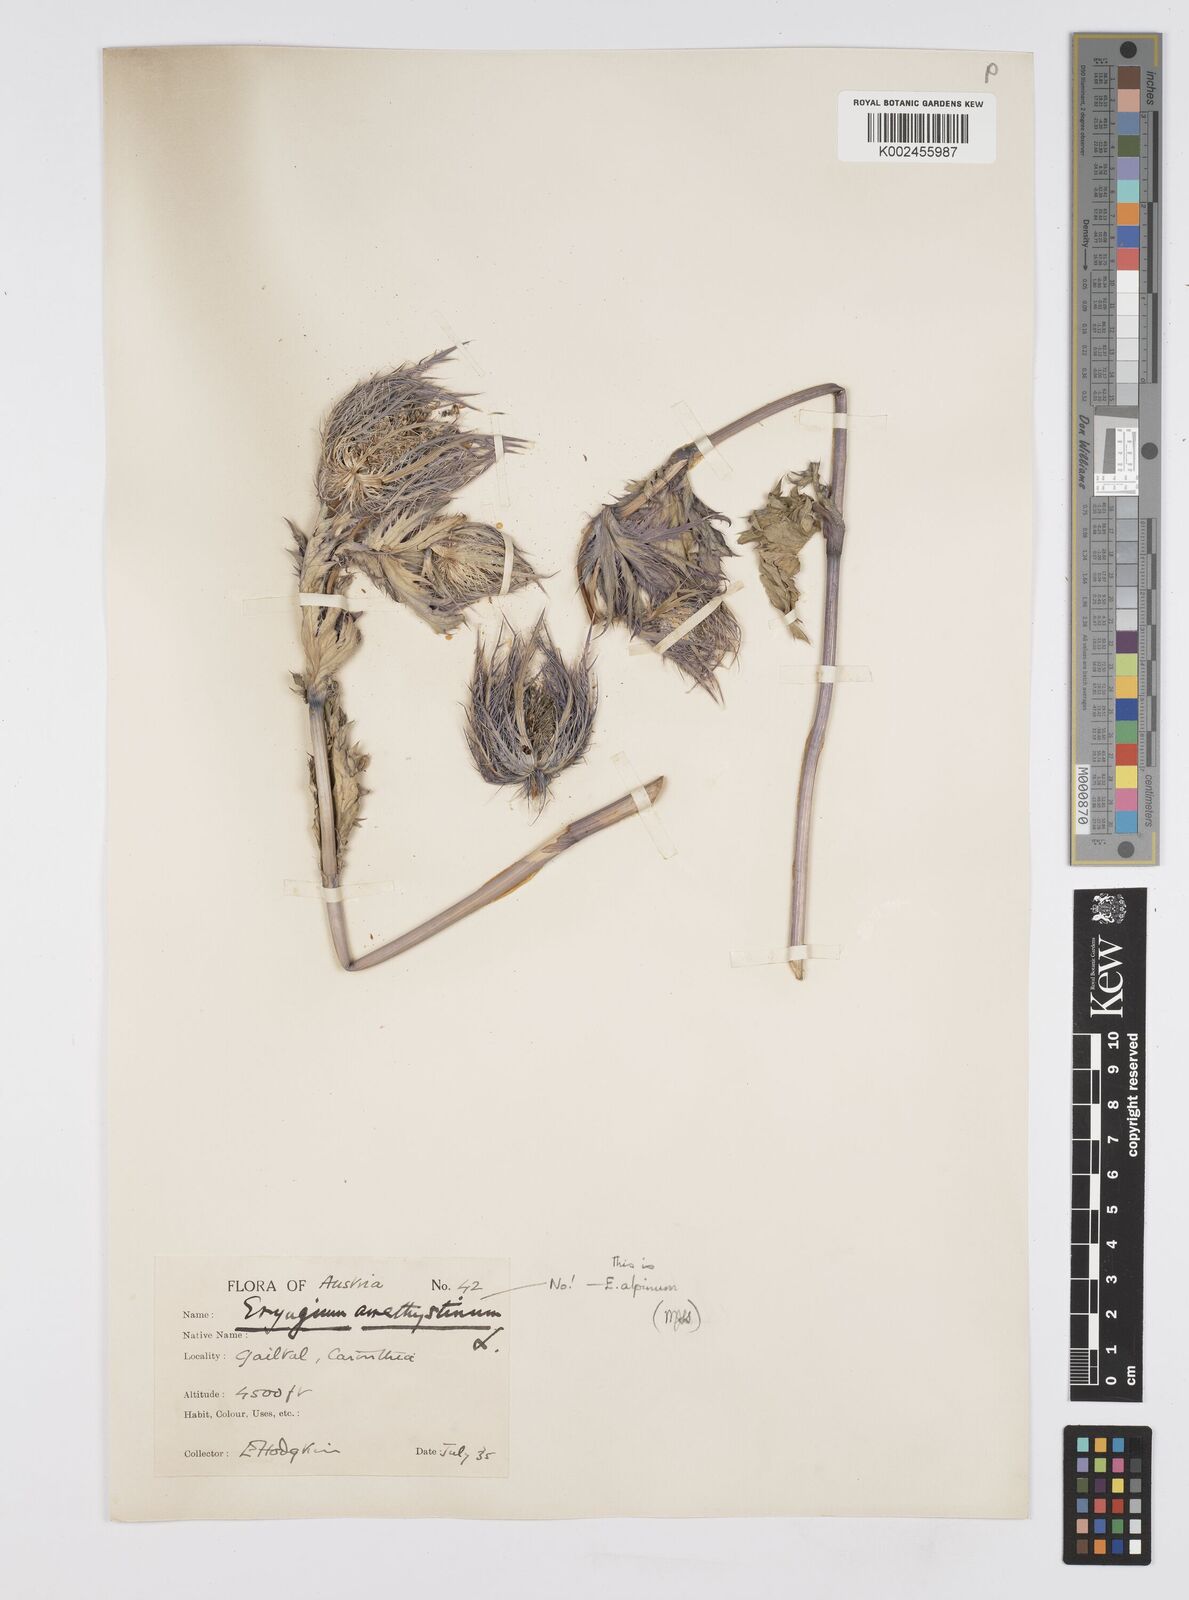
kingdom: Plantae
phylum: Tracheophyta
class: Magnoliopsida
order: Apiales
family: Apiaceae
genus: Eryngium
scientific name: Eryngium alpinum
